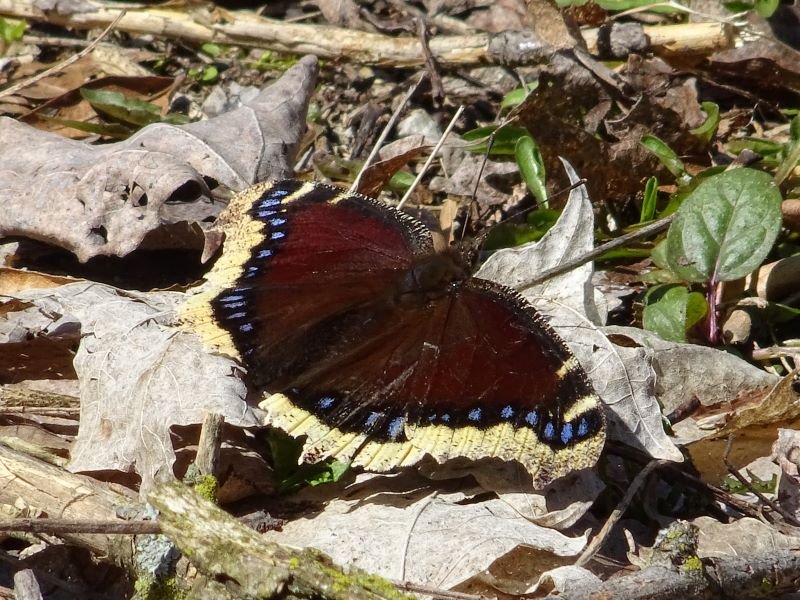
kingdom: Animalia
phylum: Arthropoda
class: Insecta
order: Lepidoptera
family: Nymphalidae
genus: Nymphalis
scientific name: Nymphalis antiopa
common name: Mourning Cloak
